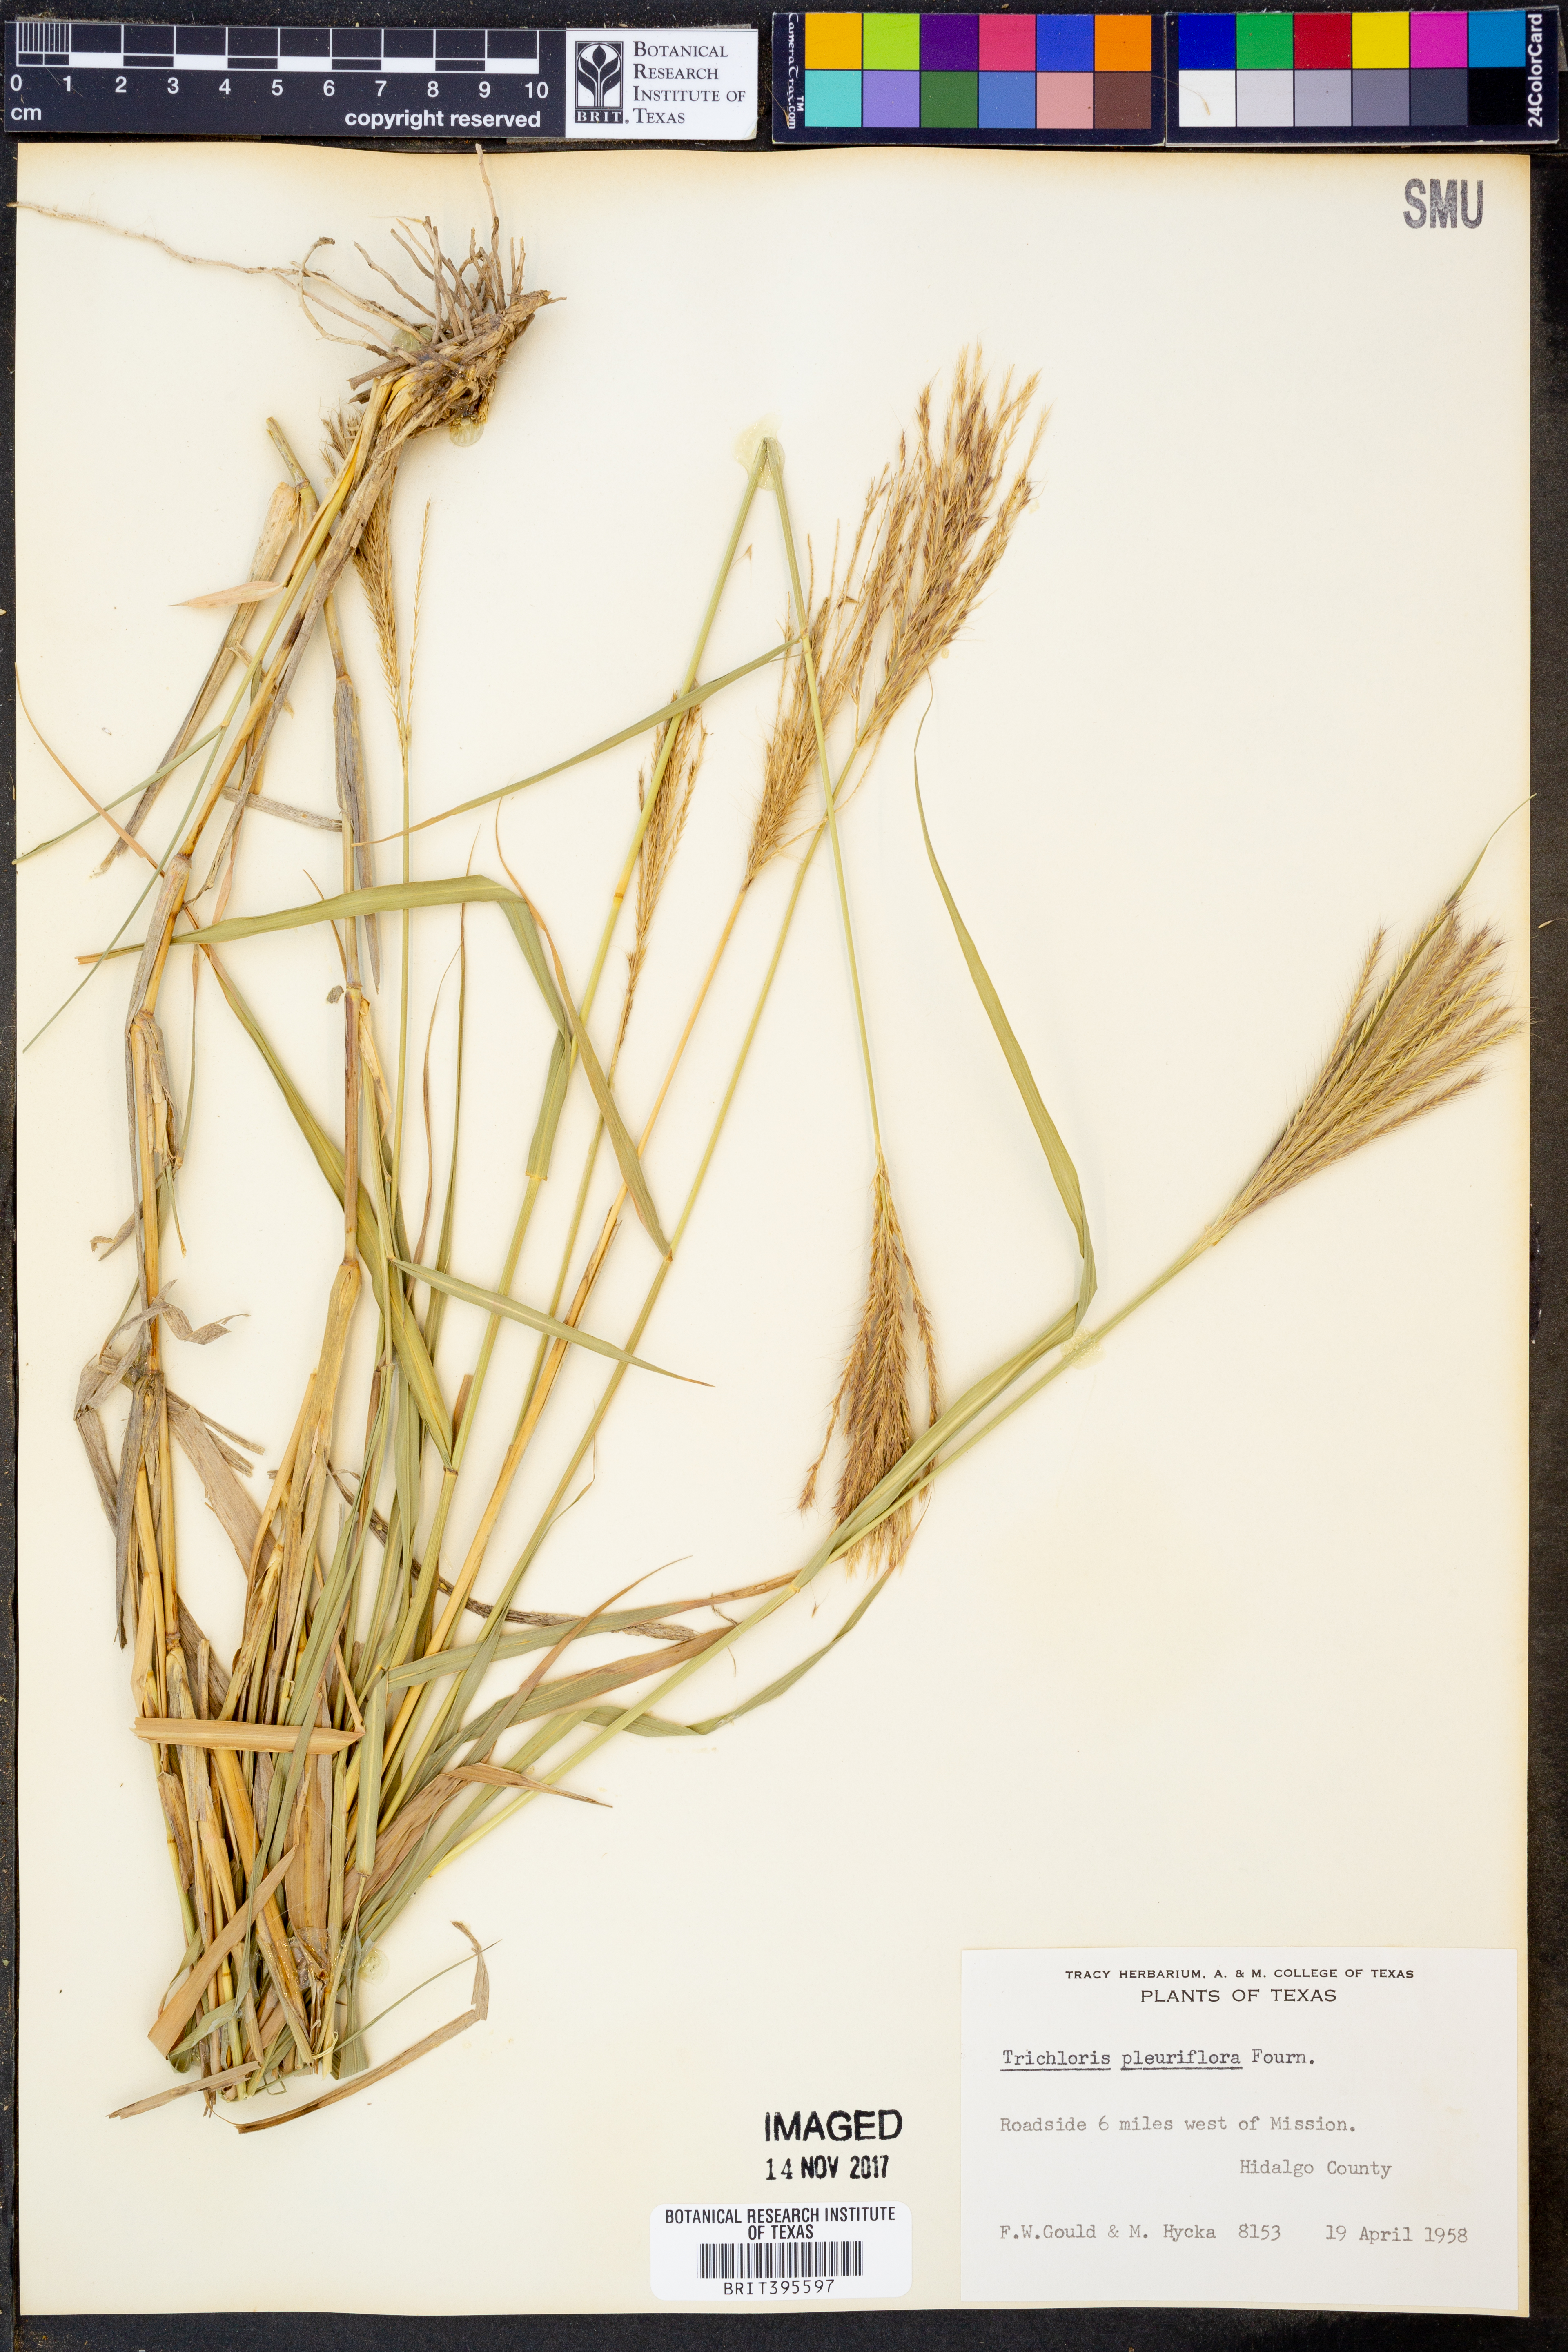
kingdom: Plantae
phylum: Tracheophyta
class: Liliopsida
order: Poales
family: Poaceae
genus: Leptochloa
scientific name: Leptochloa pluriflora
